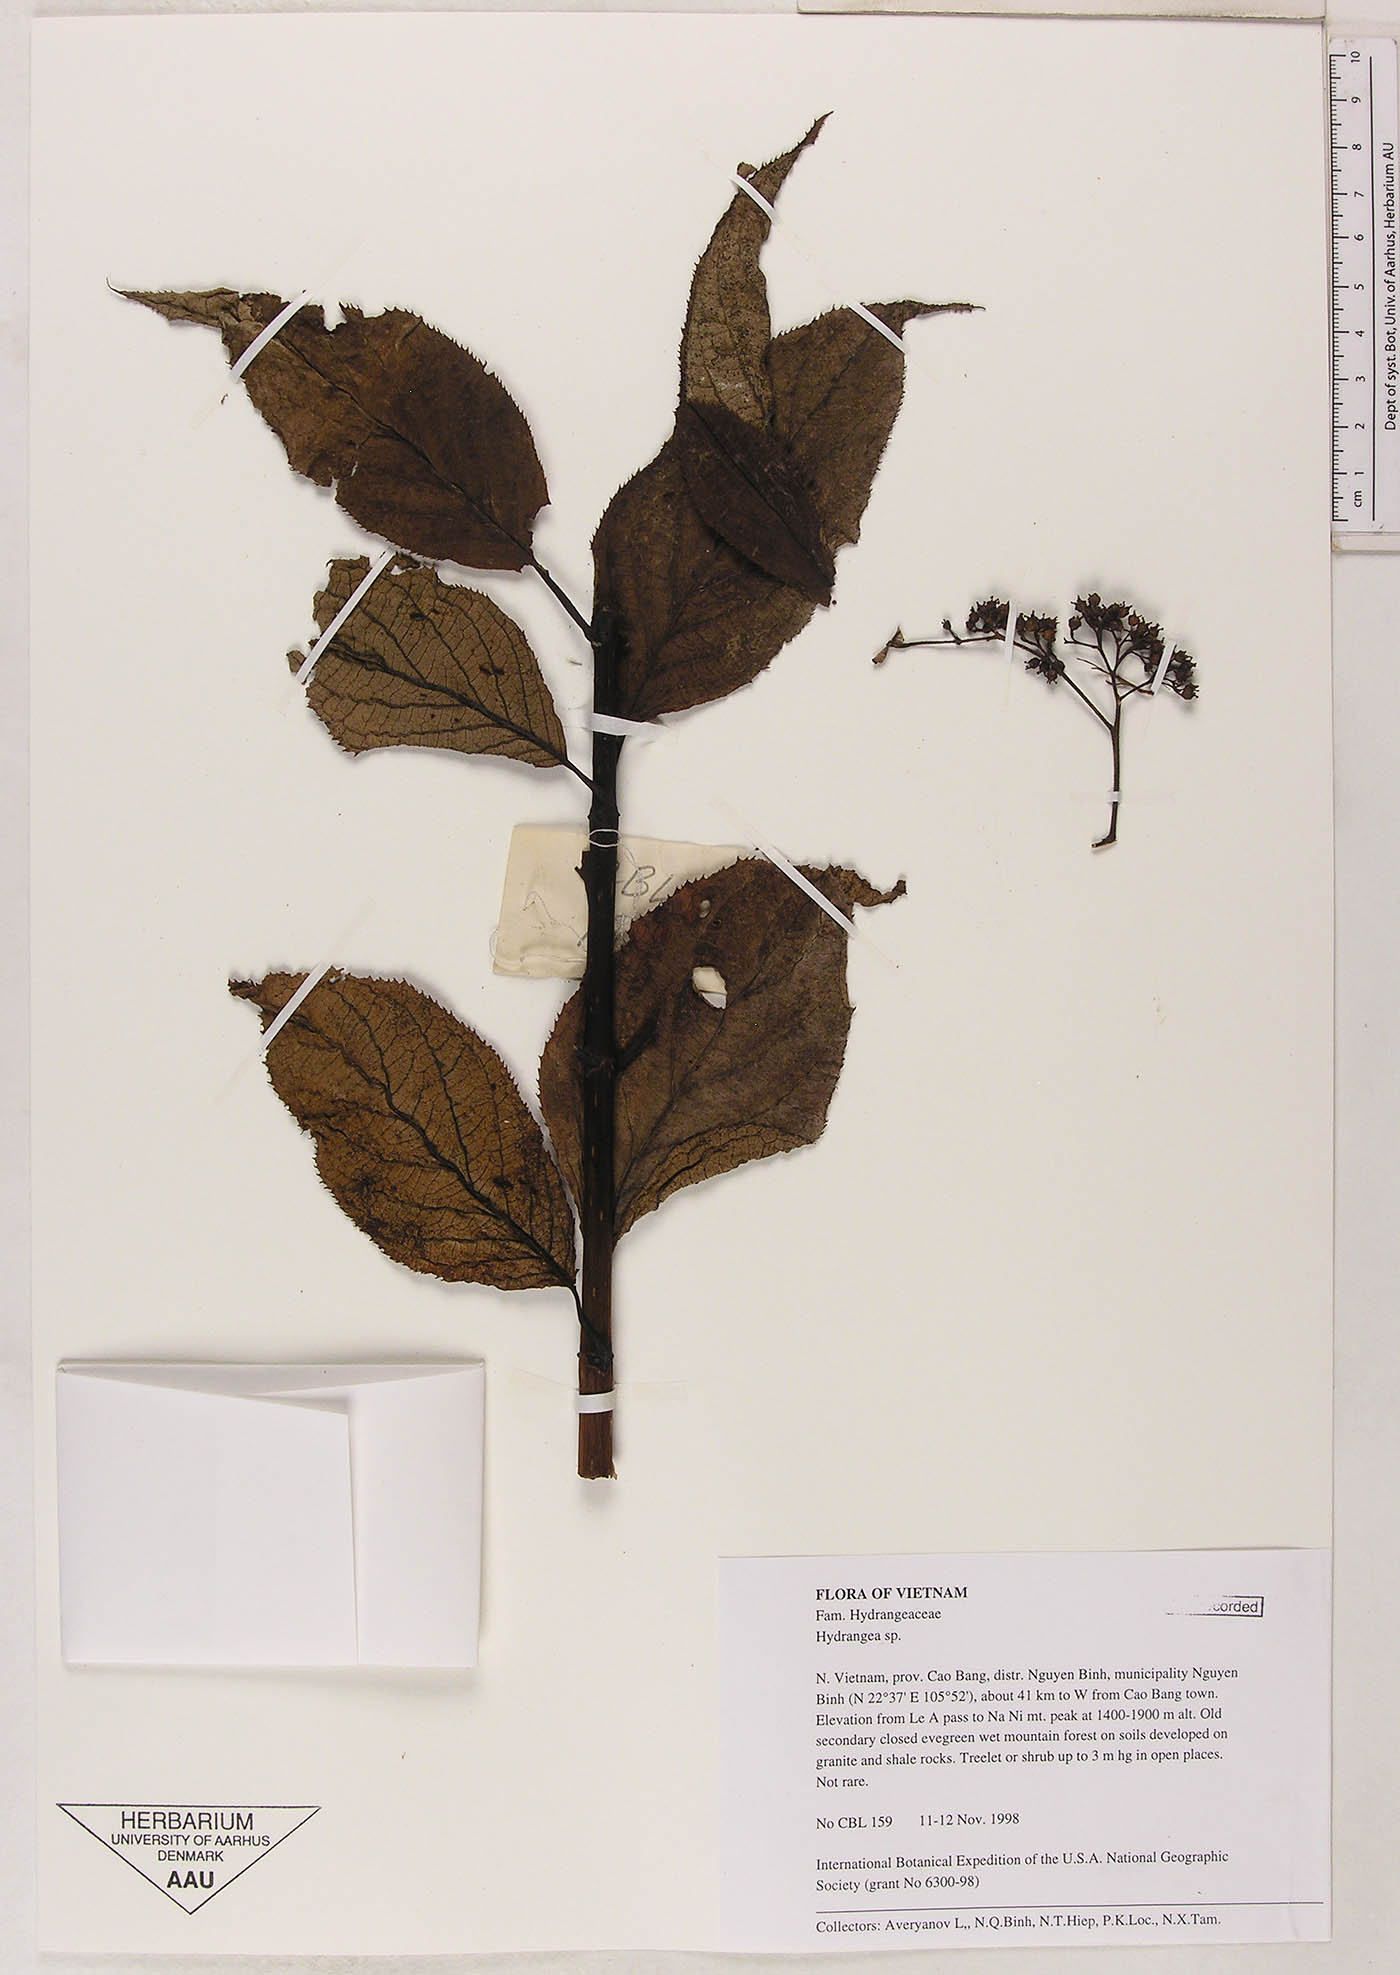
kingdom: Plantae
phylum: Tracheophyta
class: Magnoliopsida
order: Cornales
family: Hydrangeaceae
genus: Hydrangea
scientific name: Hydrangea
